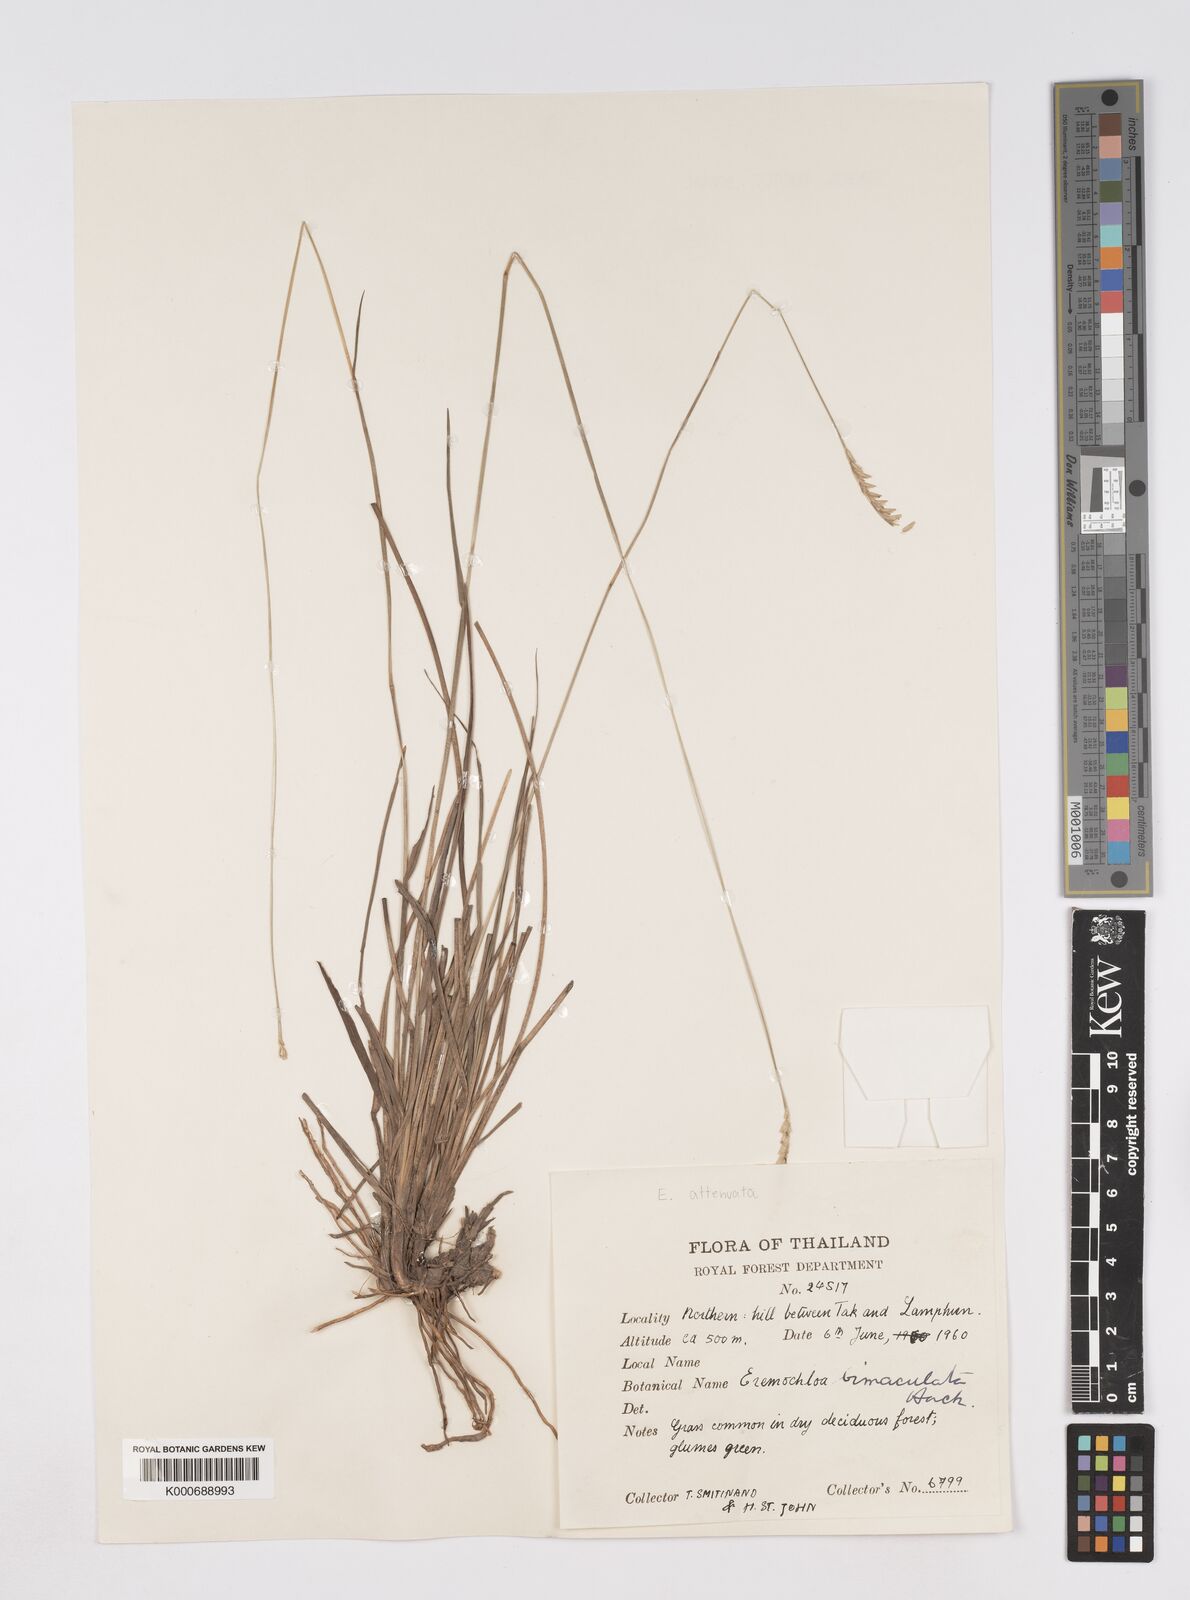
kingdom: Plantae
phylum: Tracheophyta
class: Liliopsida
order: Poales
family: Poaceae
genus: Eremochloa
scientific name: Eremochloa attenuata
